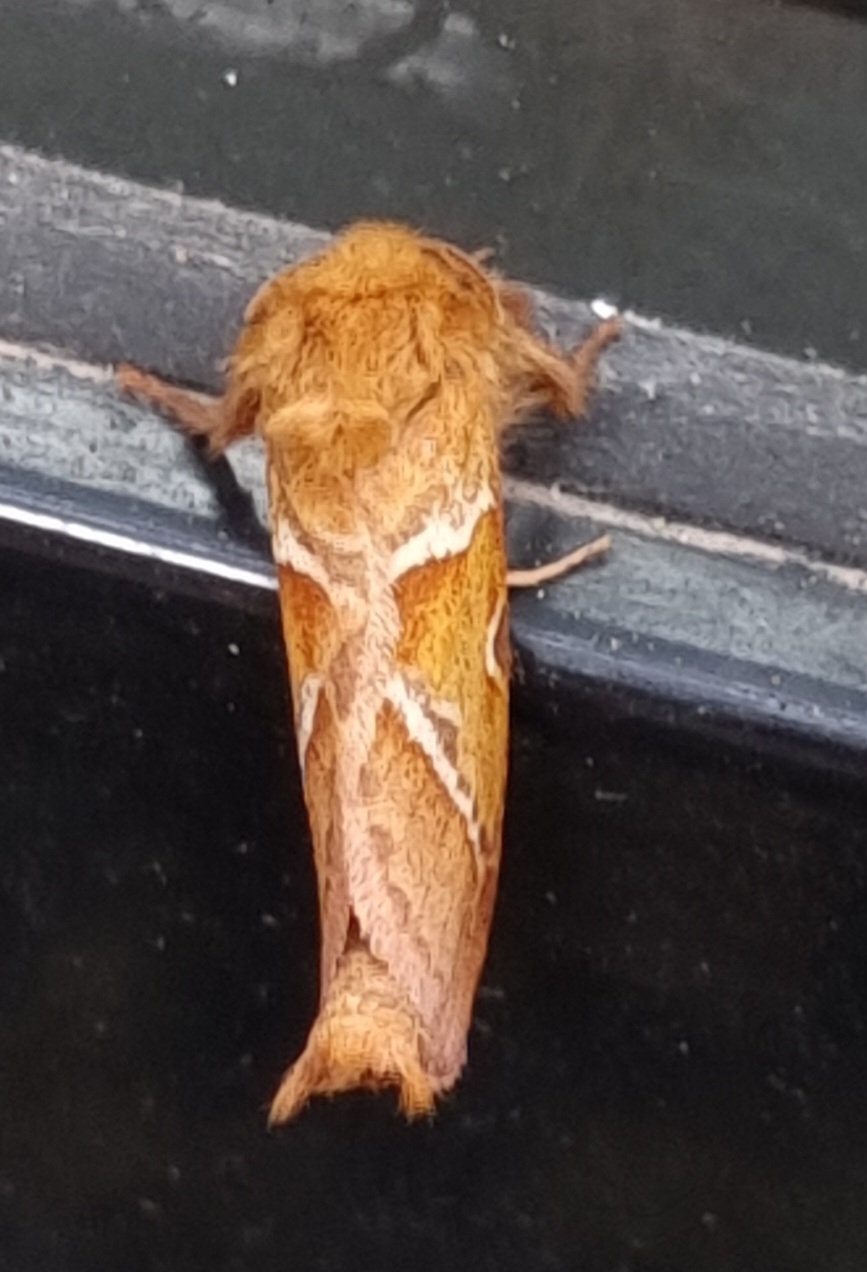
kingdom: Animalia
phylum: Arthropoda
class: Insecta
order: Lepidoptera
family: Hepialidae
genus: Triodia
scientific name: Triodia sylvina
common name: Skræpperodæder
